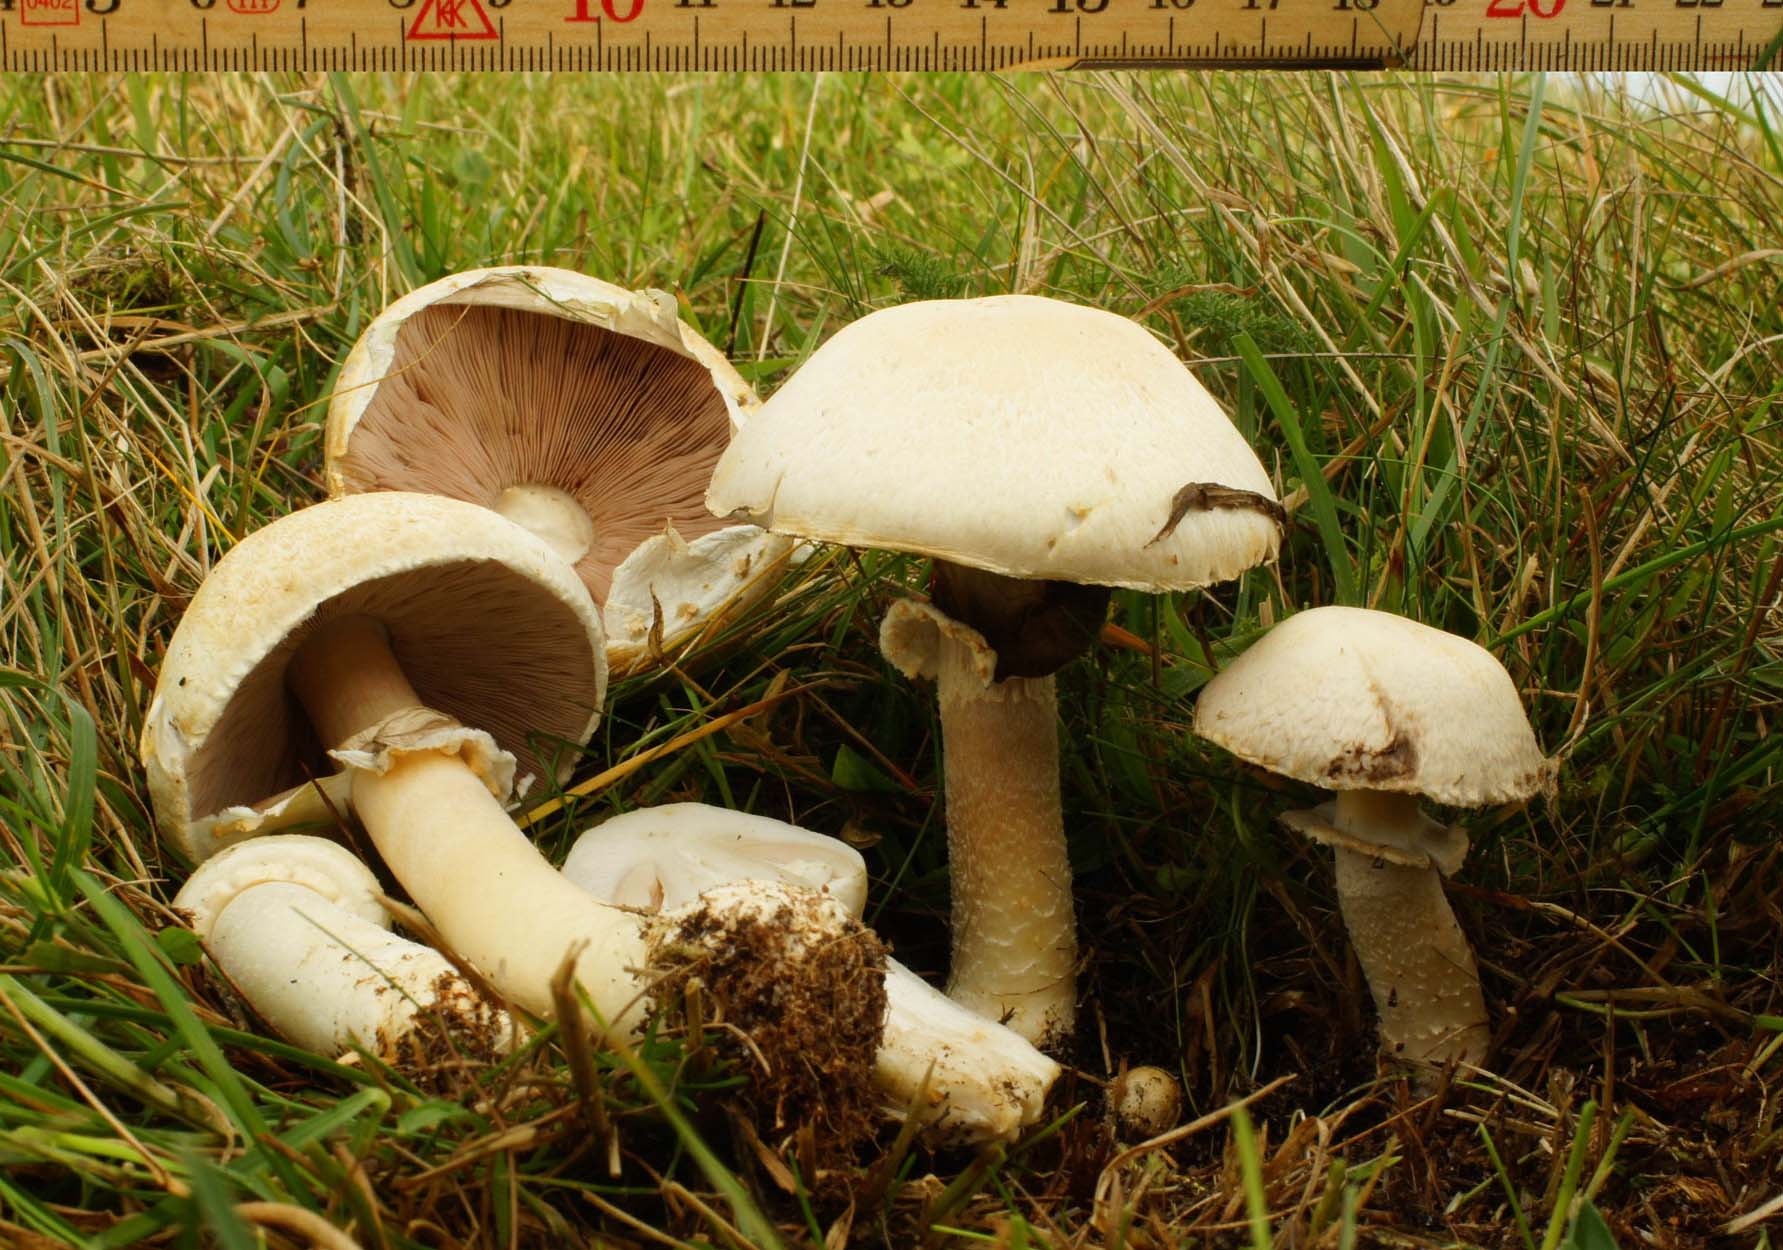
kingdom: Fungi
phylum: Basidiomycota
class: Agaricomycetes
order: Agaricales
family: Agaricaceae
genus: Agaricus
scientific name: Agaricus litoralis
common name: kyst-champignon
